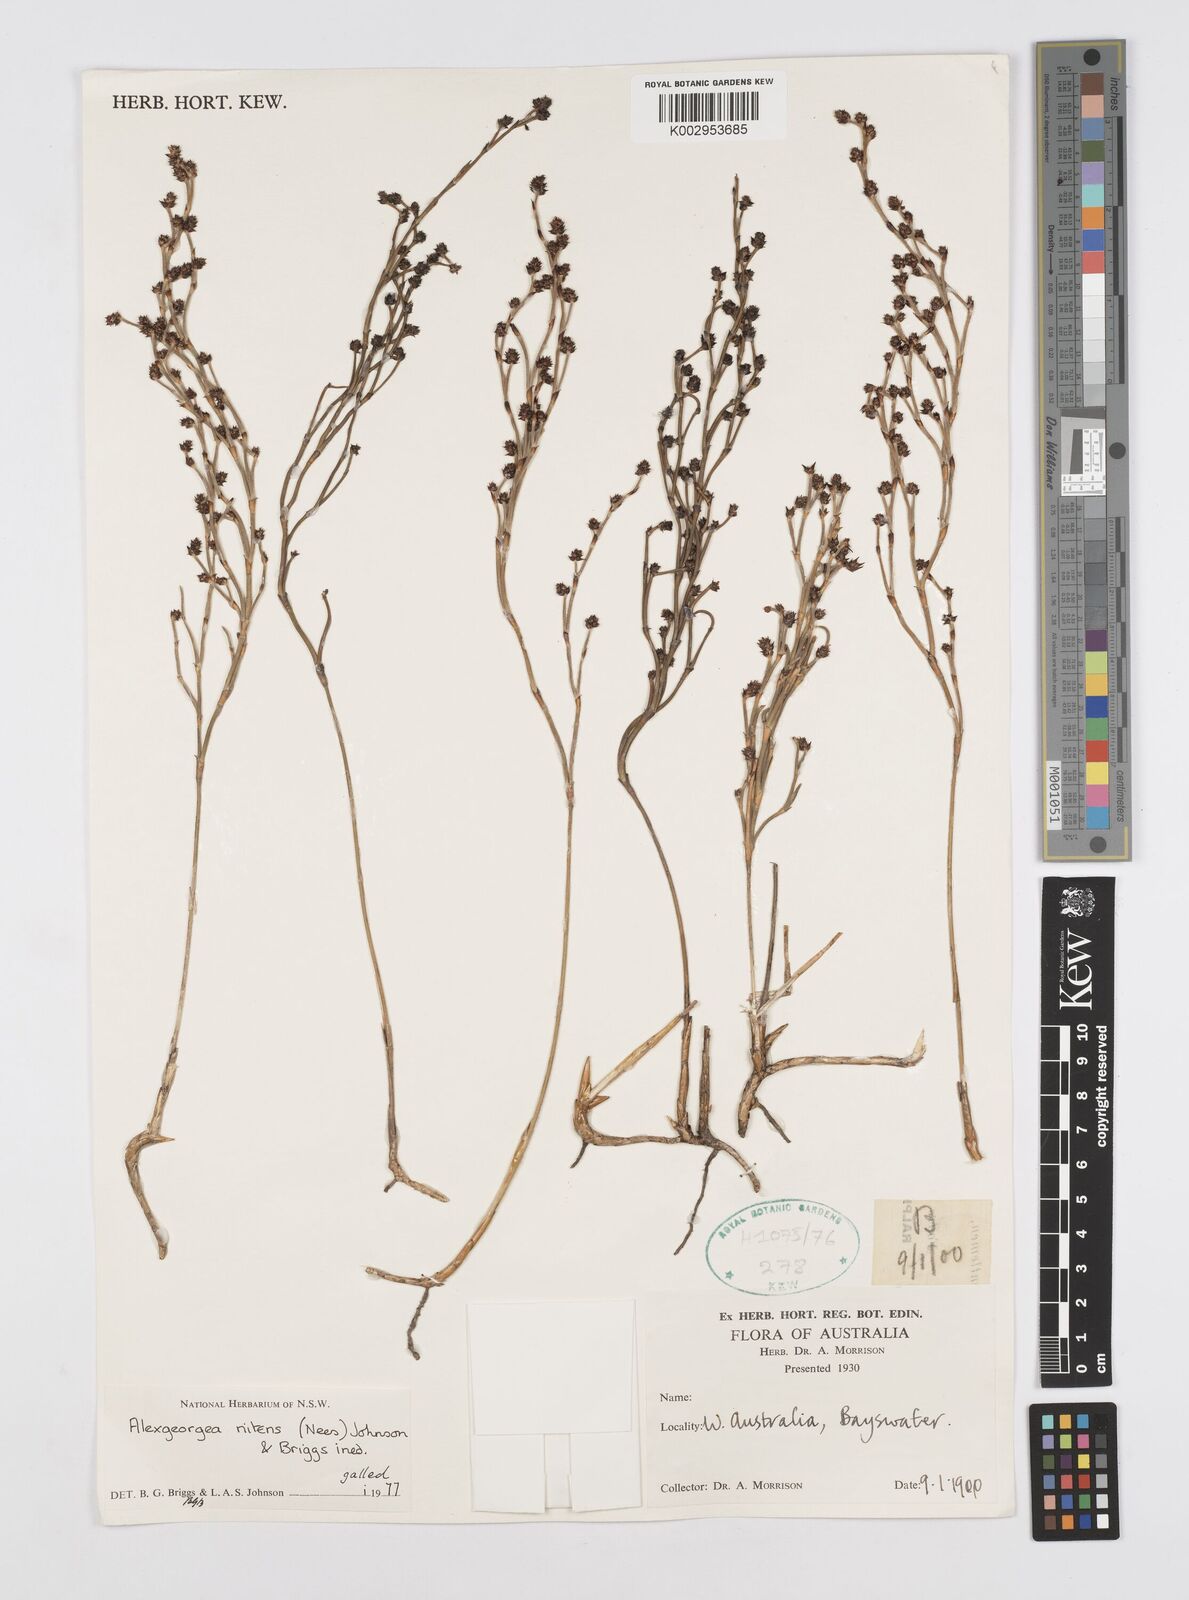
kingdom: Plantae
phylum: Tracheophyta
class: Liliopsida
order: Poales
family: Restionaceae
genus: Alexgeorgea
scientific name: Alexgeorgea nitens
